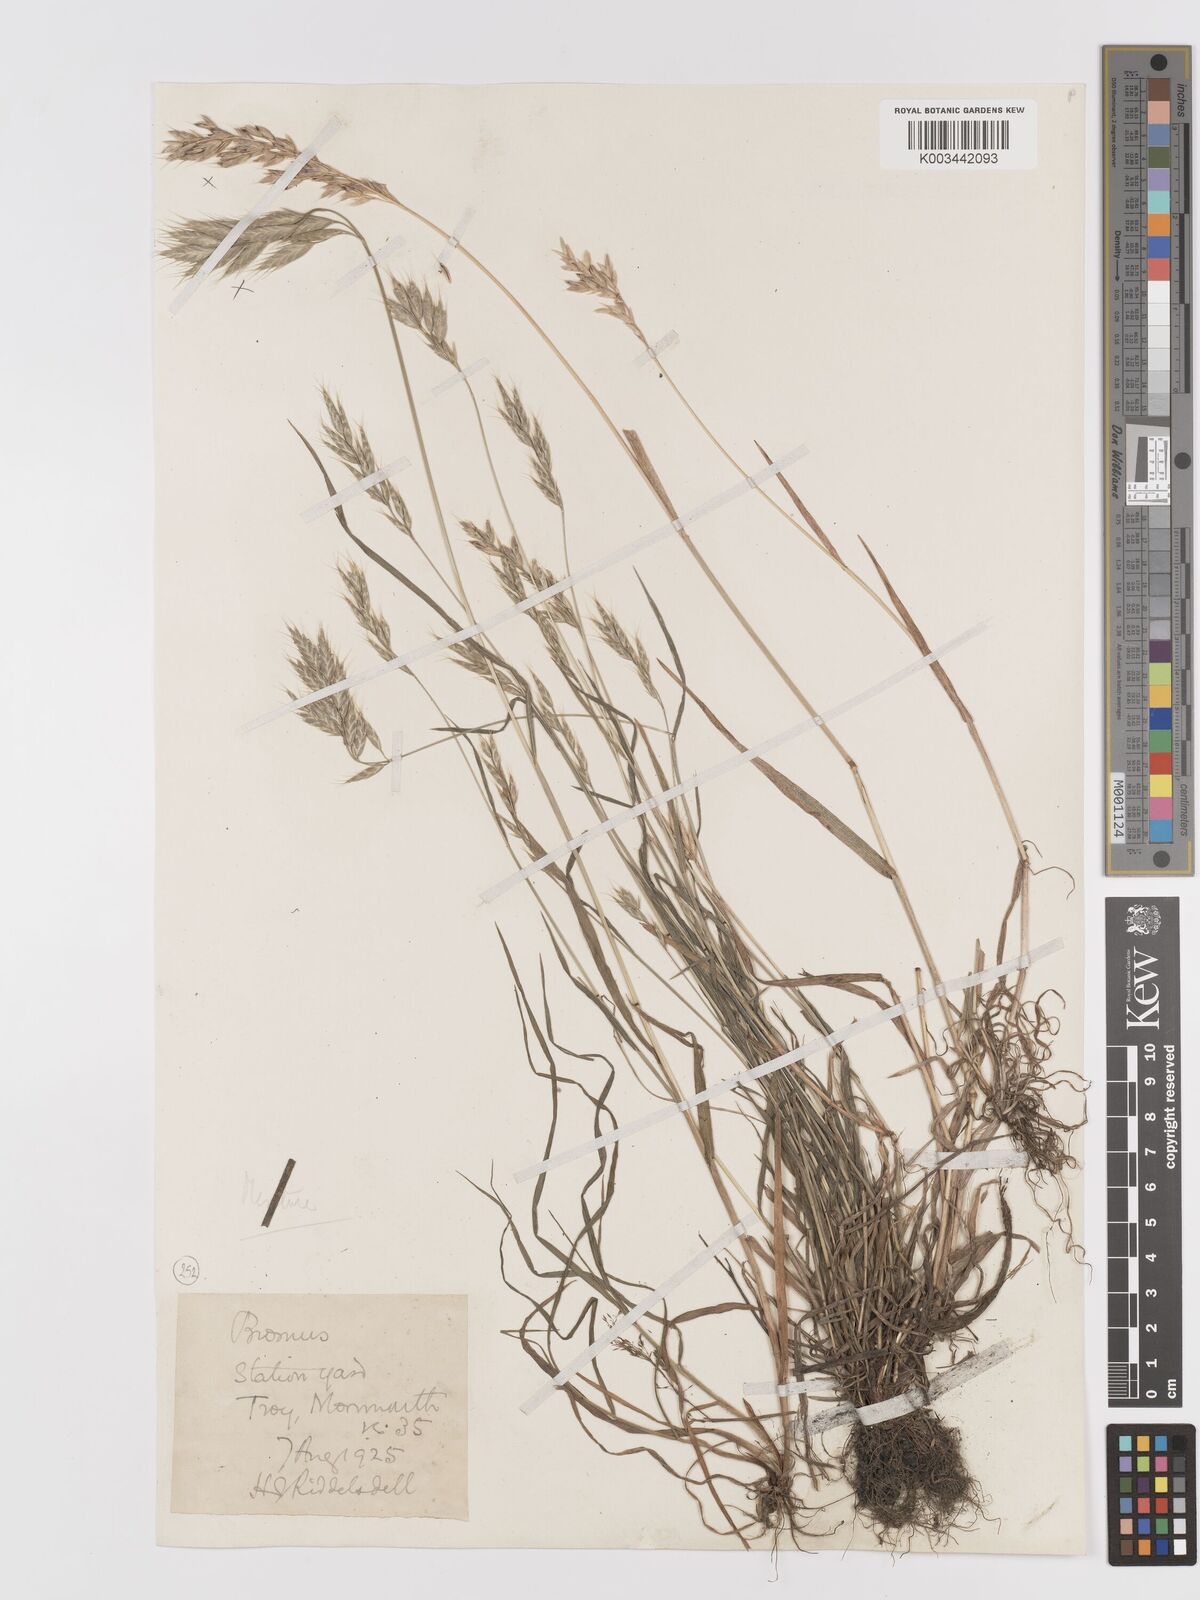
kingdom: Plantae
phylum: Tracheophyta
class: Liliopsida
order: Poales
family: Poaceae
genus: Bromus
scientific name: Bromus lepidus
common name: Slender soft-brome
